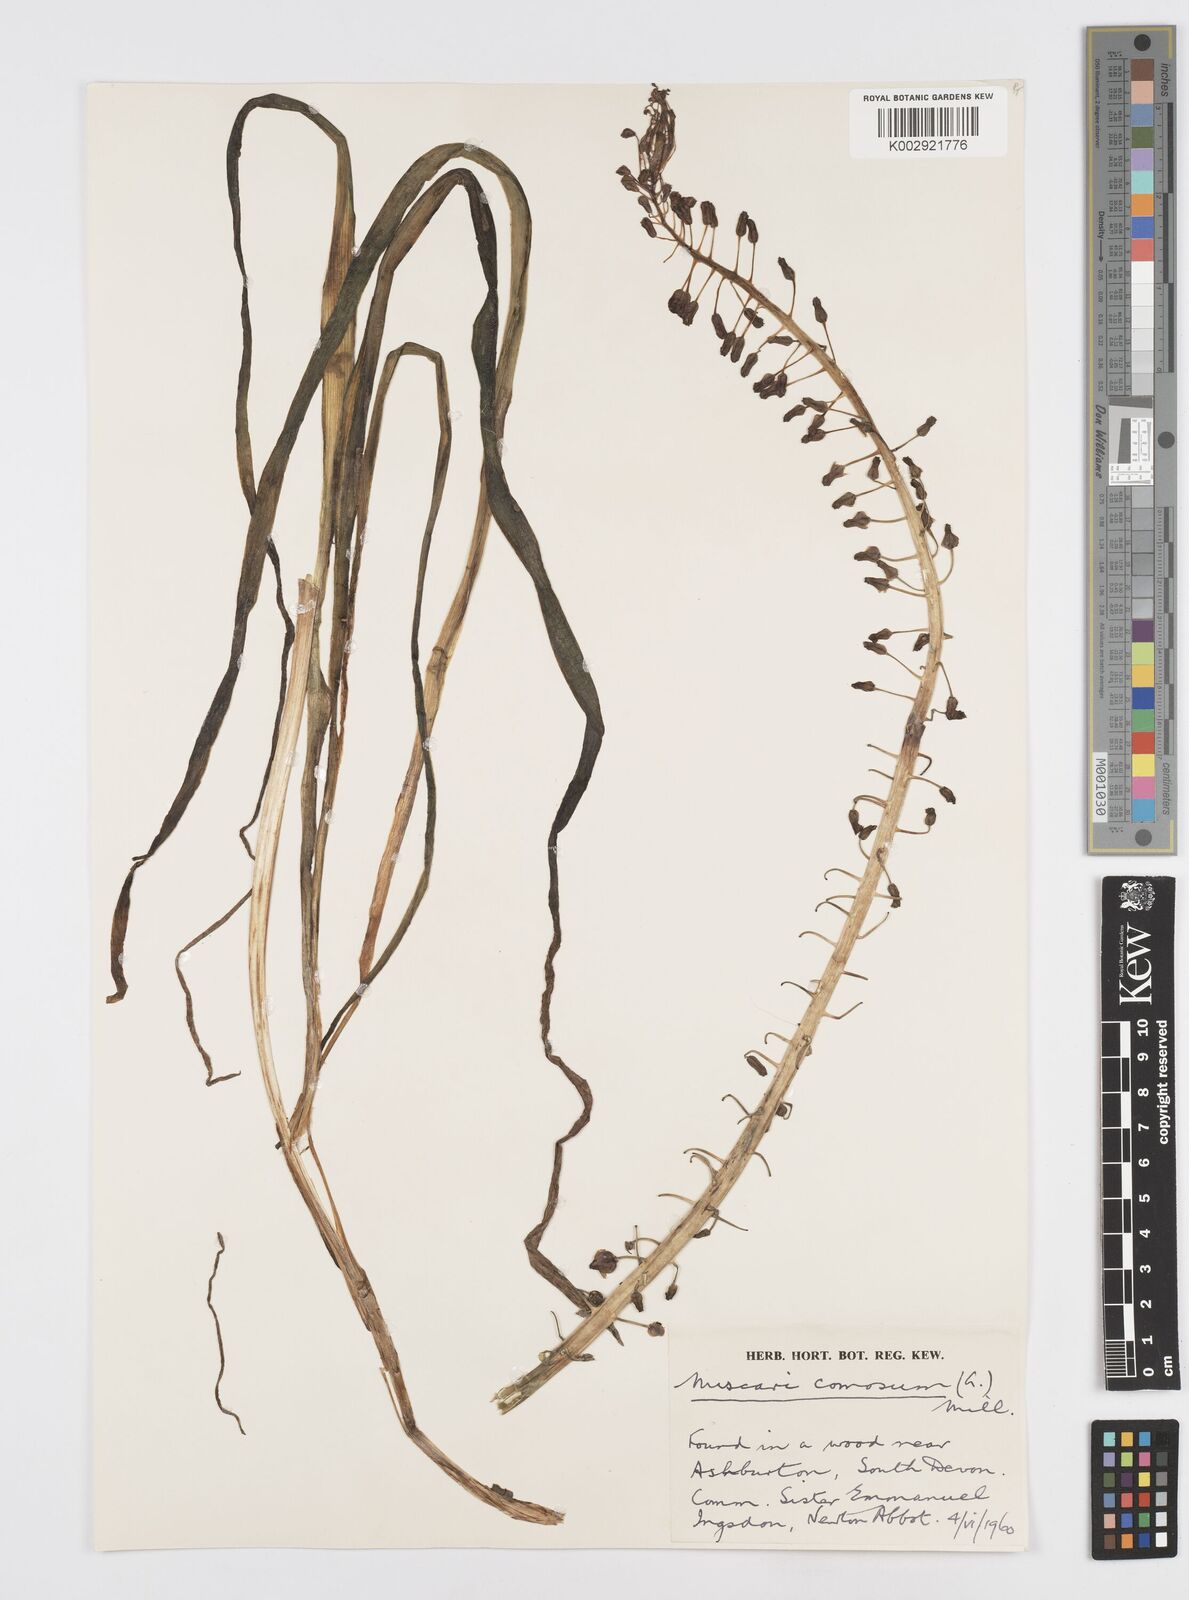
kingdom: Plantae
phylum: Tracheophyta
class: Liliopsida
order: Asparagales
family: Asparagaceae
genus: Muscari
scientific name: Muscari comosum
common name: Tassel hyacinth
